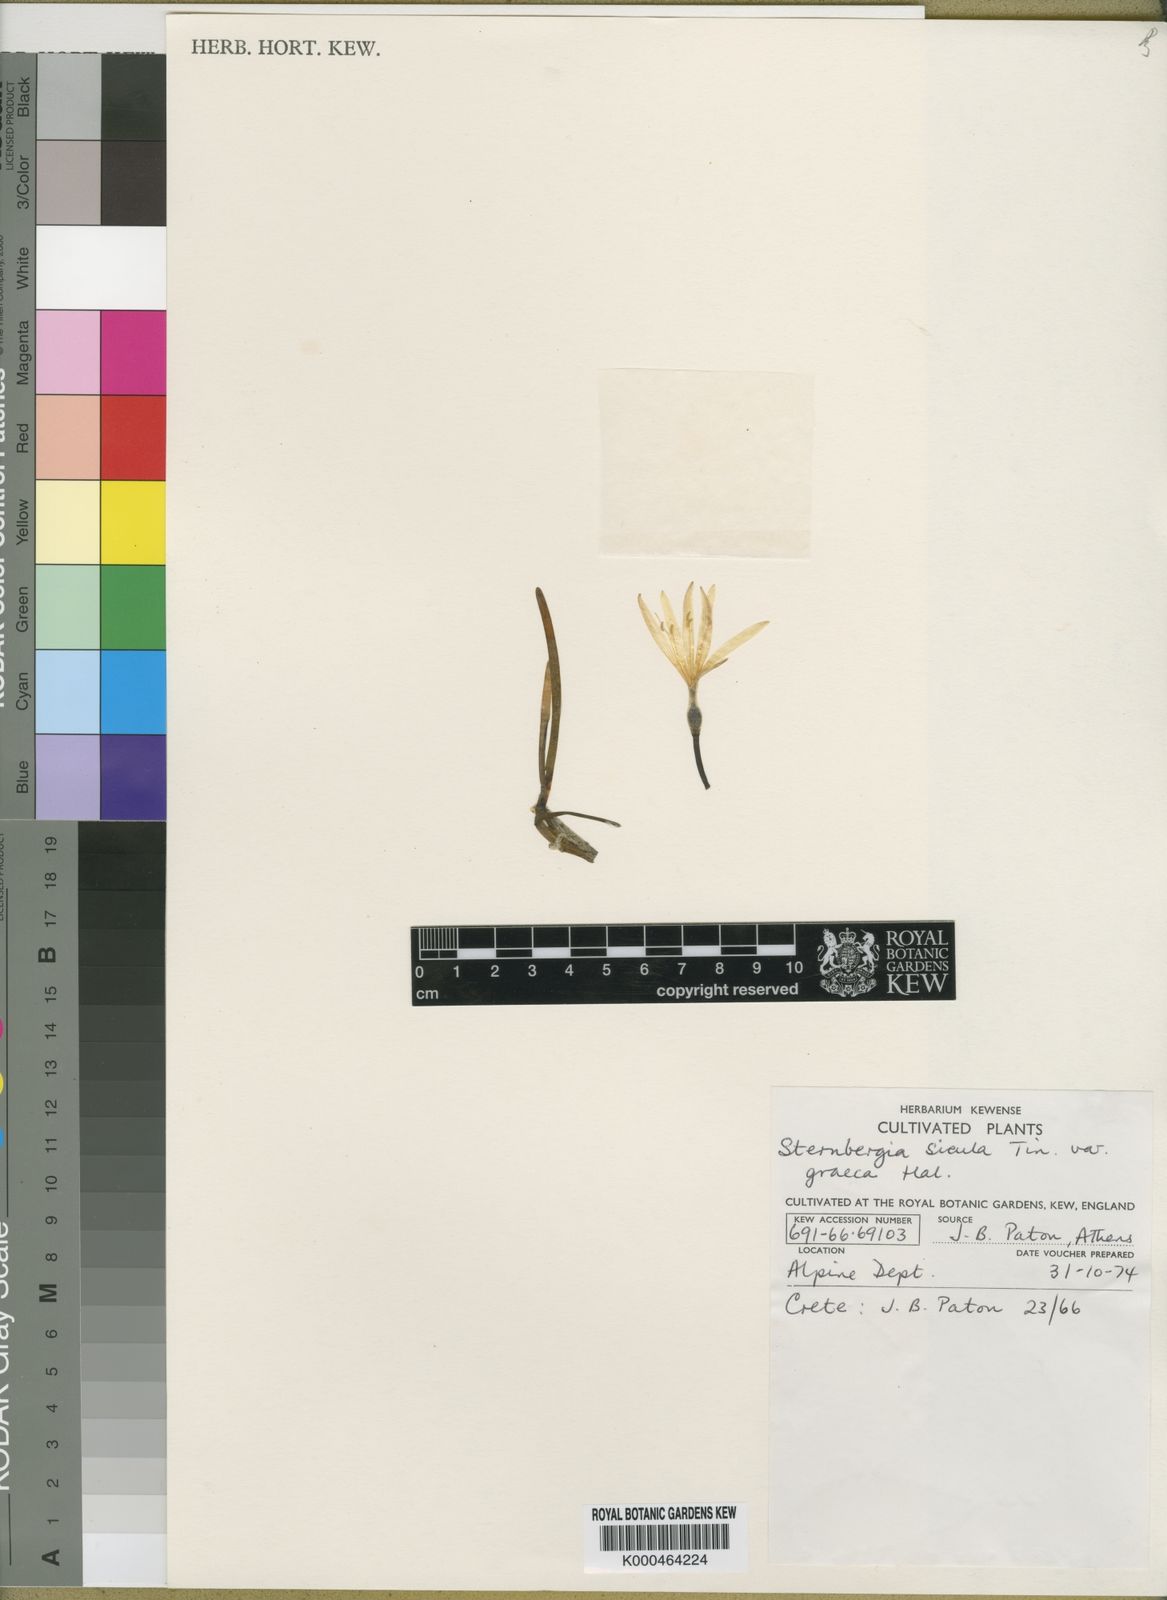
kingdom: Plantae
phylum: Tracheophyta
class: Liliopsida
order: Asparagales
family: Amaryllidaceae
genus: Sternbergia
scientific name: Sternbergia
